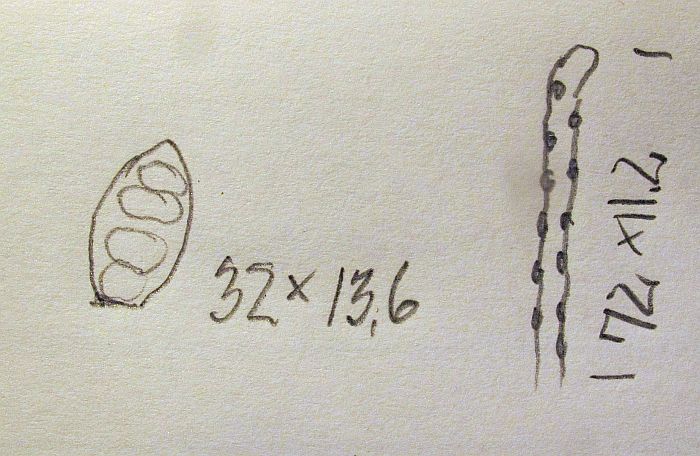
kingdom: Fungi
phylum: Ascomycota
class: Leotiomycetes
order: Helotiales
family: Helotiaceae
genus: Strossmayeria
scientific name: Strossmayeria atriseda
